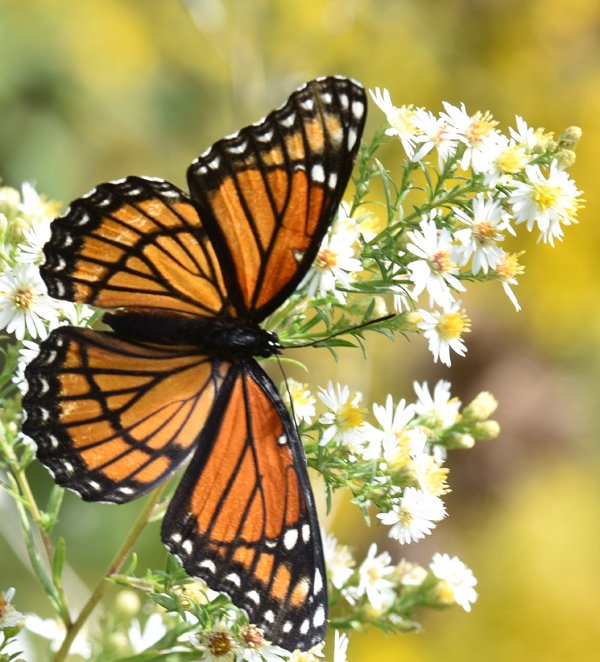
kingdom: Animalia
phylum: Arthropoda
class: Insecta
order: Lepidoptera
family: Nymphalidae
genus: Limenitis
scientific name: Limenitis archippus
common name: Viceroy
